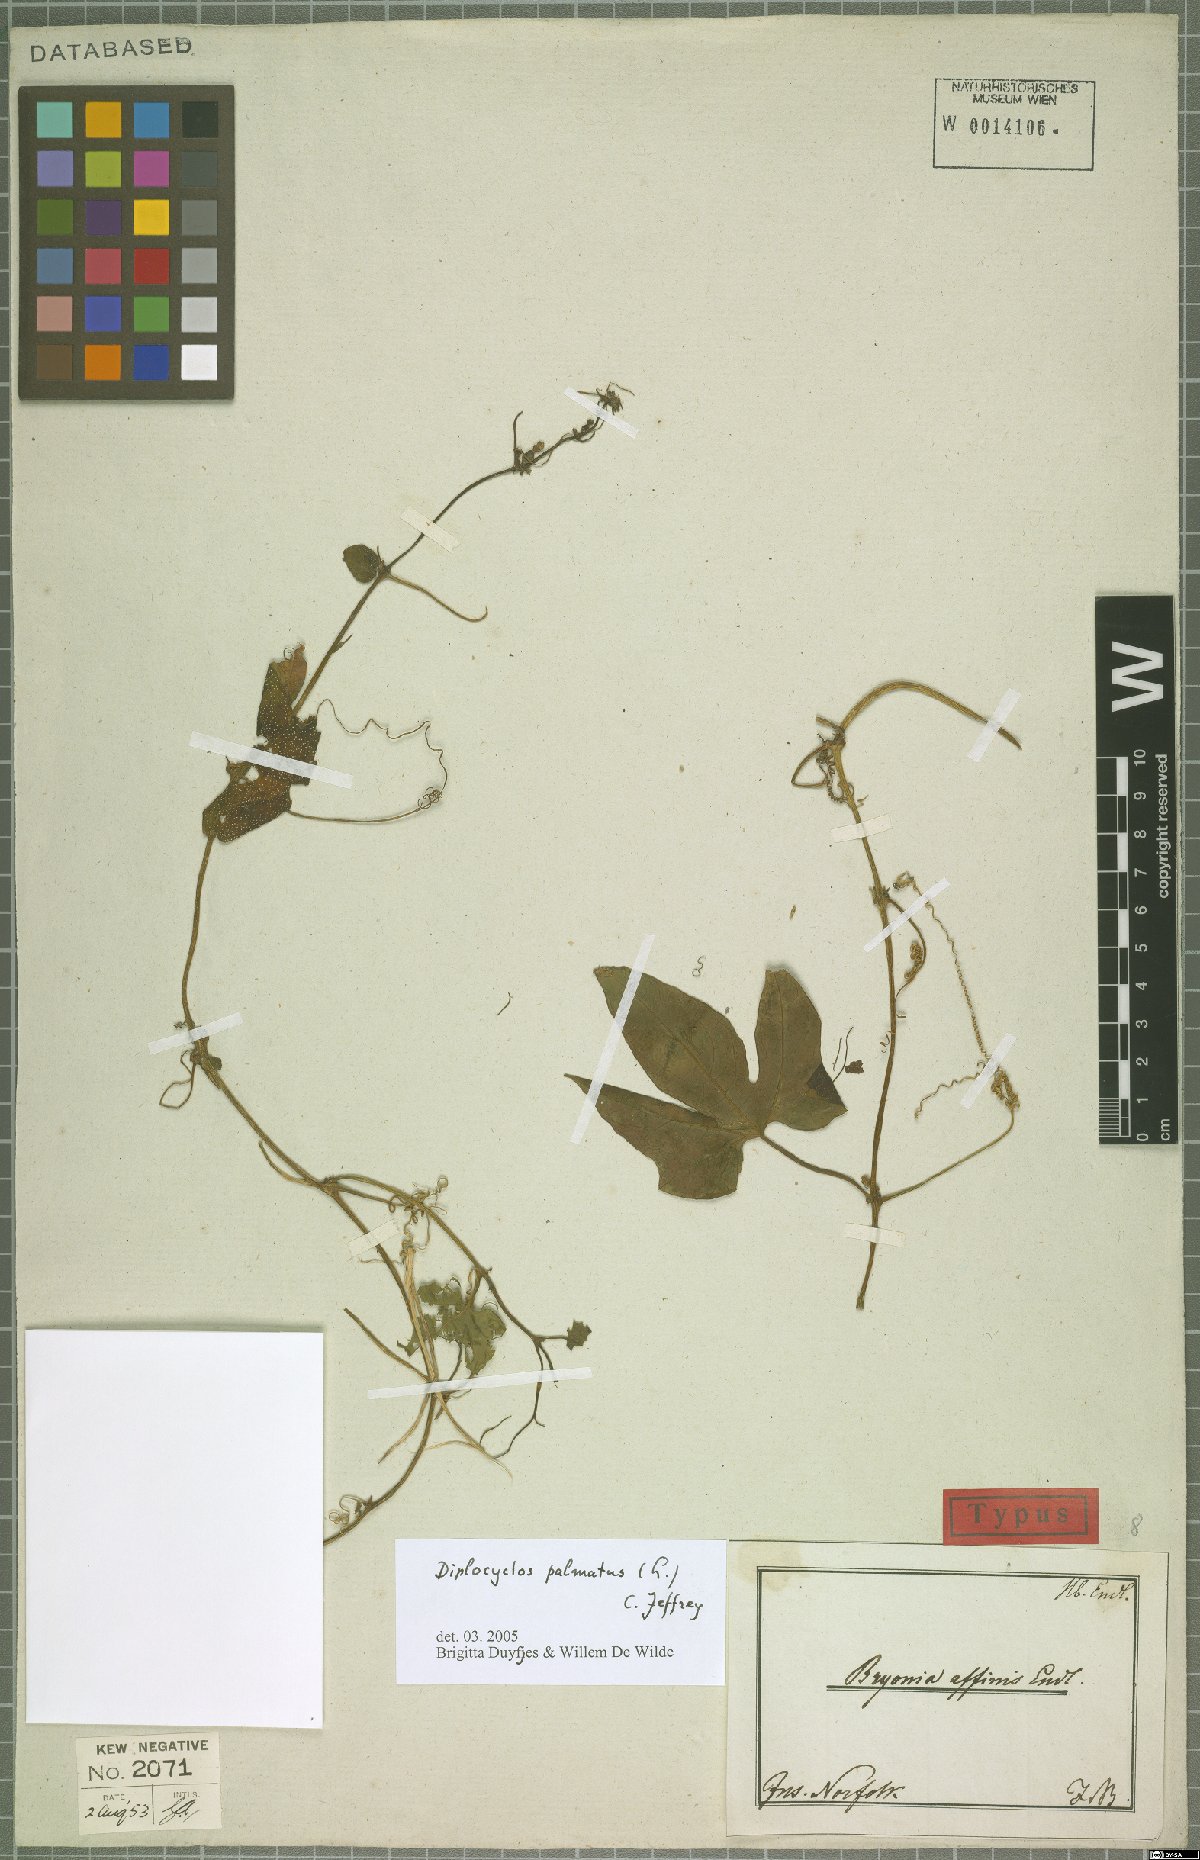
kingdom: Plantae
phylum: Tracheophyta
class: Magnoliopsida
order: Cucurbitales
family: Cucurbitaceae
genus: Diplocyclos
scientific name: Diplocyclos palmatus
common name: Striped-cucumber
